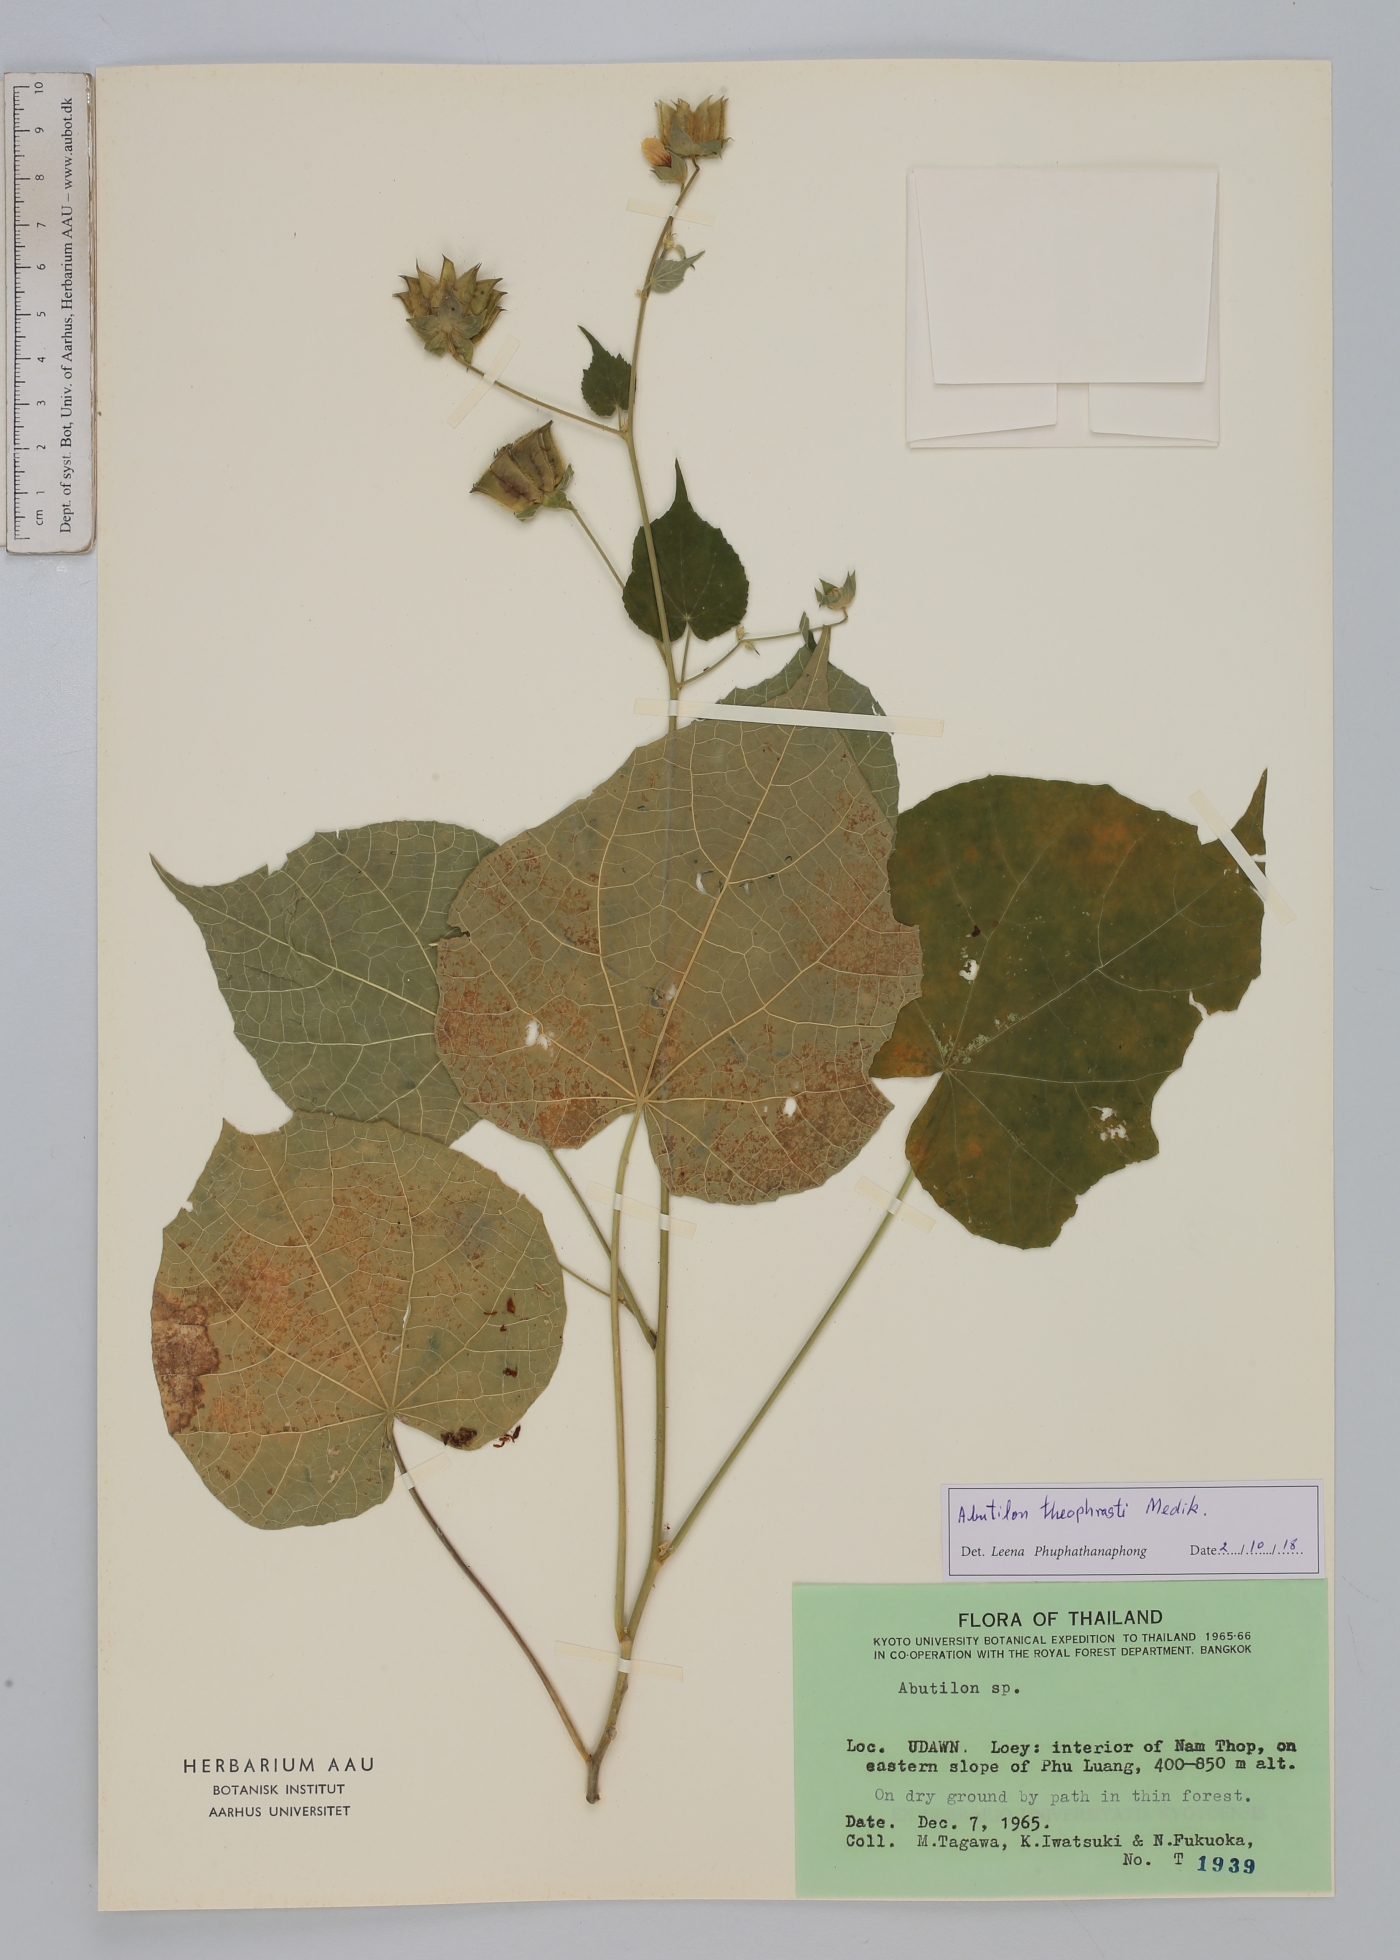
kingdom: Plantae
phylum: Tracheophyta
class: Magnoliopsida
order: Malvales
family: Malvaceae
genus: Abutilon
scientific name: Abutilon theophrasti
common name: Velvetleaf
